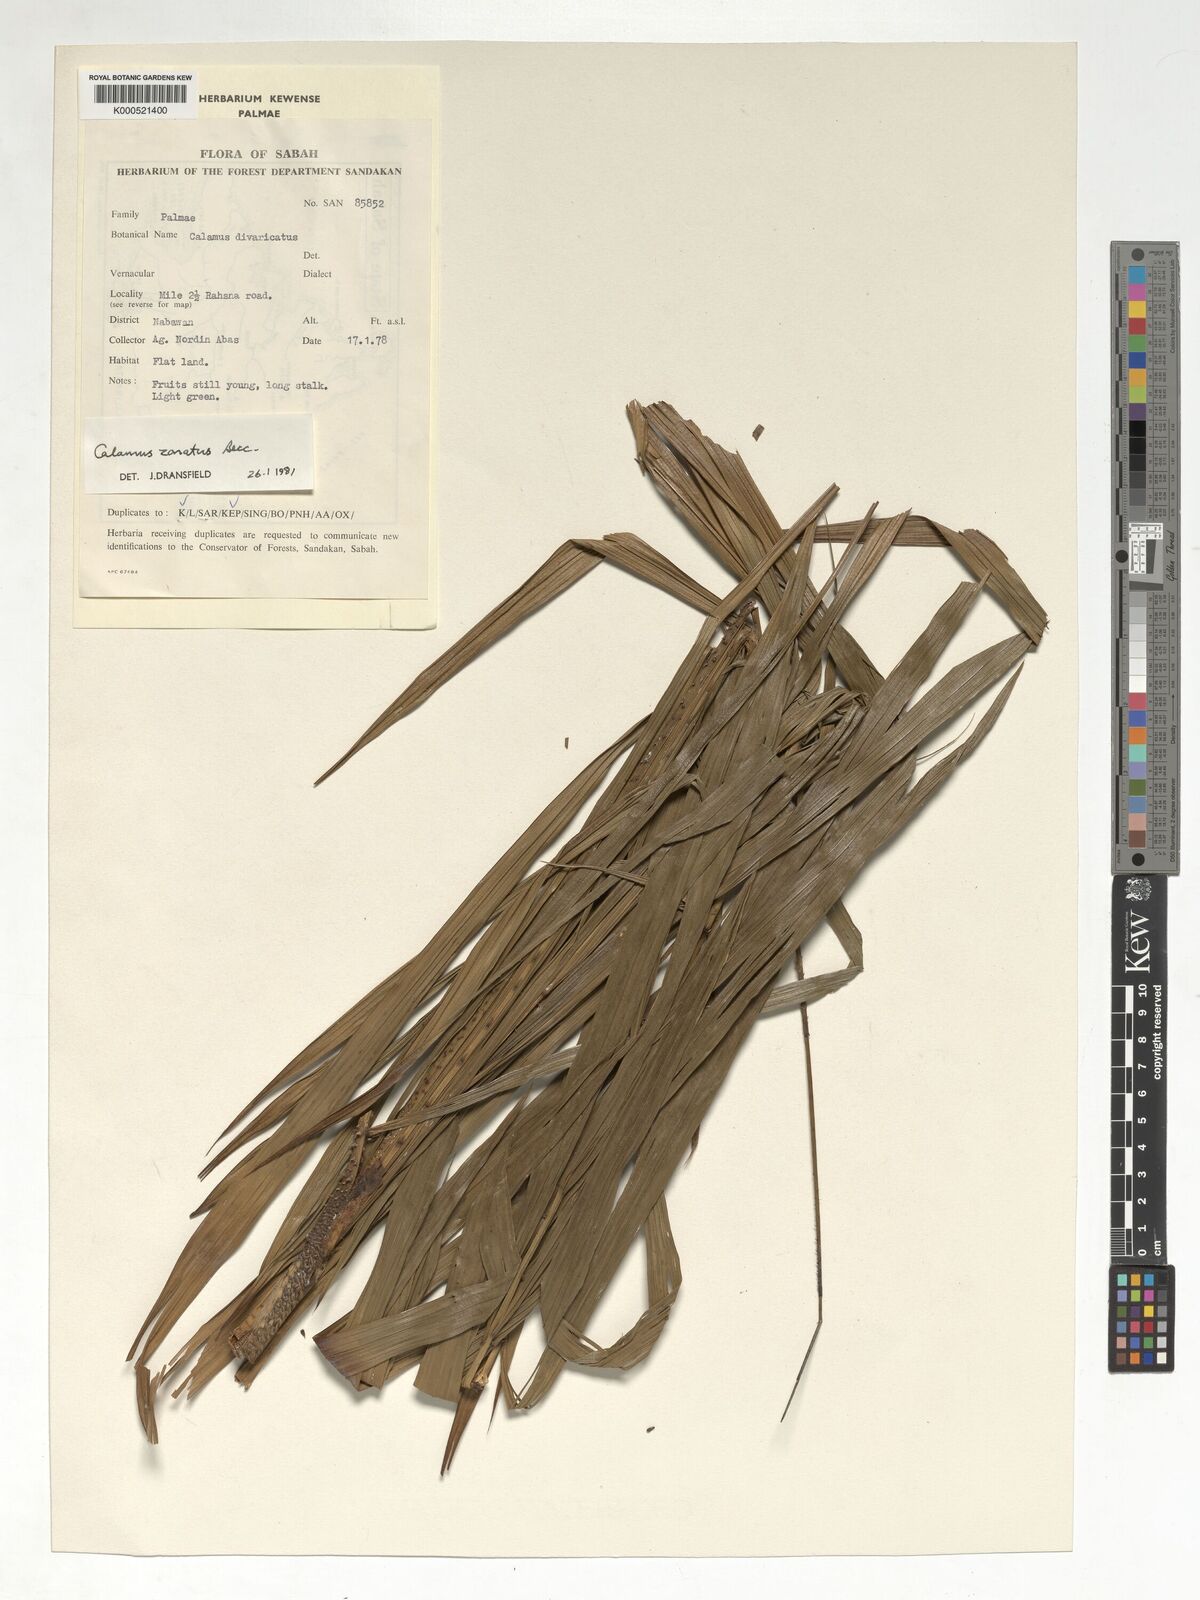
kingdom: Plantae
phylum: Tracheophyta
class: Liliopsida
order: Arecales
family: Arecaceae
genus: Calamus
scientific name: Calamus zonatus
